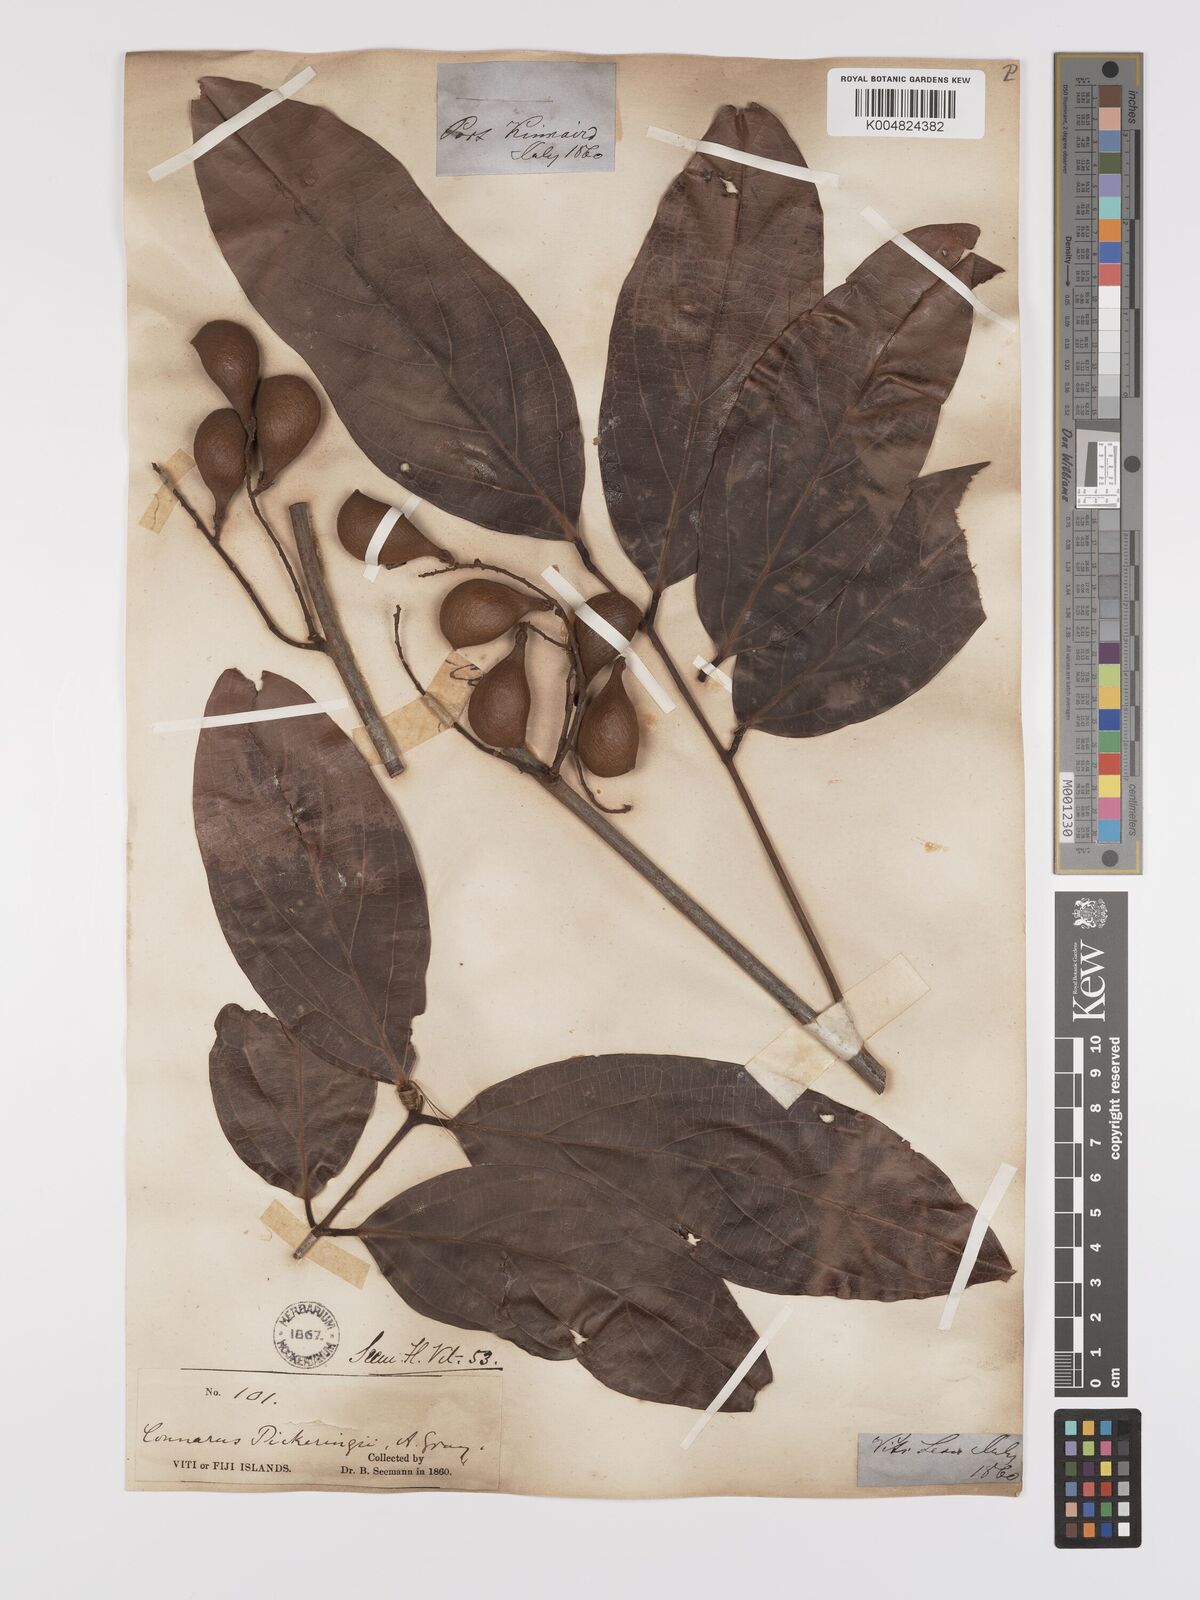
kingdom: Plantae
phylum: Tracheophyta
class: Magnoliopsida
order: Oxalidales
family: Connaraceae
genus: Connarus
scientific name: Connarus pickeringii
